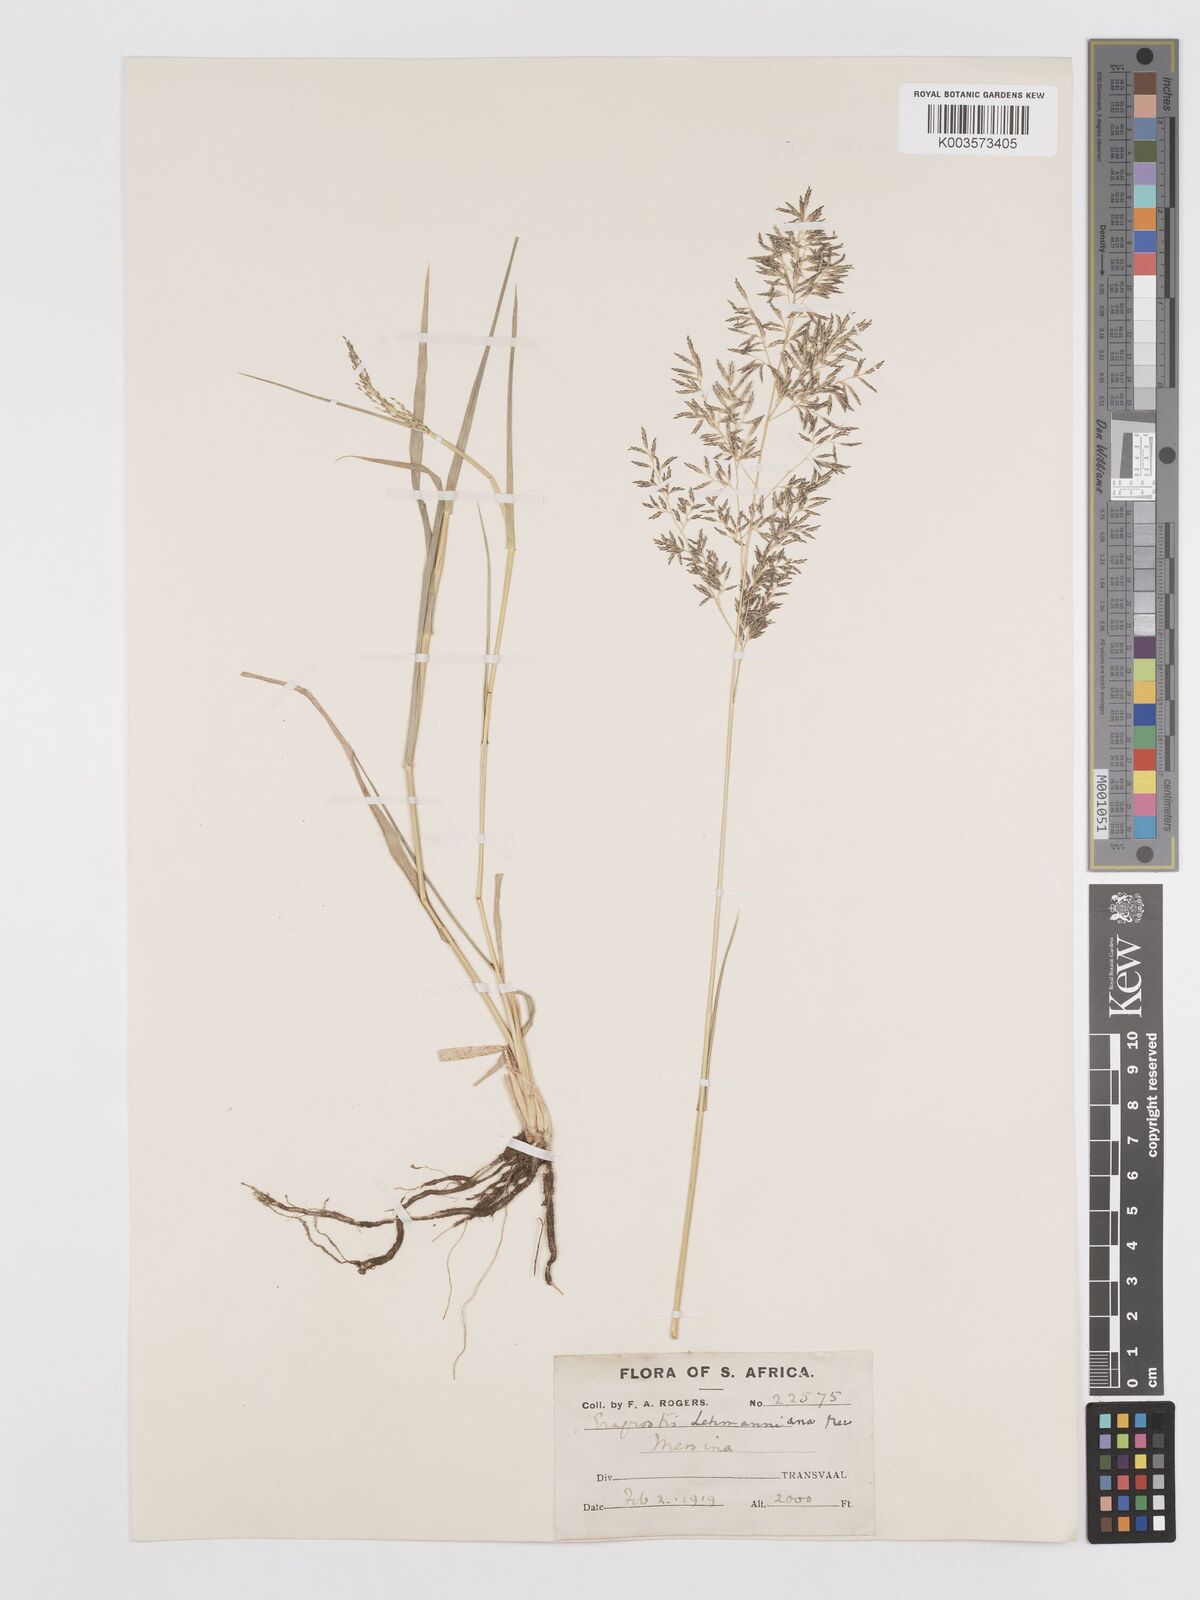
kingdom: Plantae
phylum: Tracheophyta
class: Liliopsida
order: Poales
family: Poaceae
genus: Eragrostis
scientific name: Eragrostis lehmanniana
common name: Lehmann lovegrass
